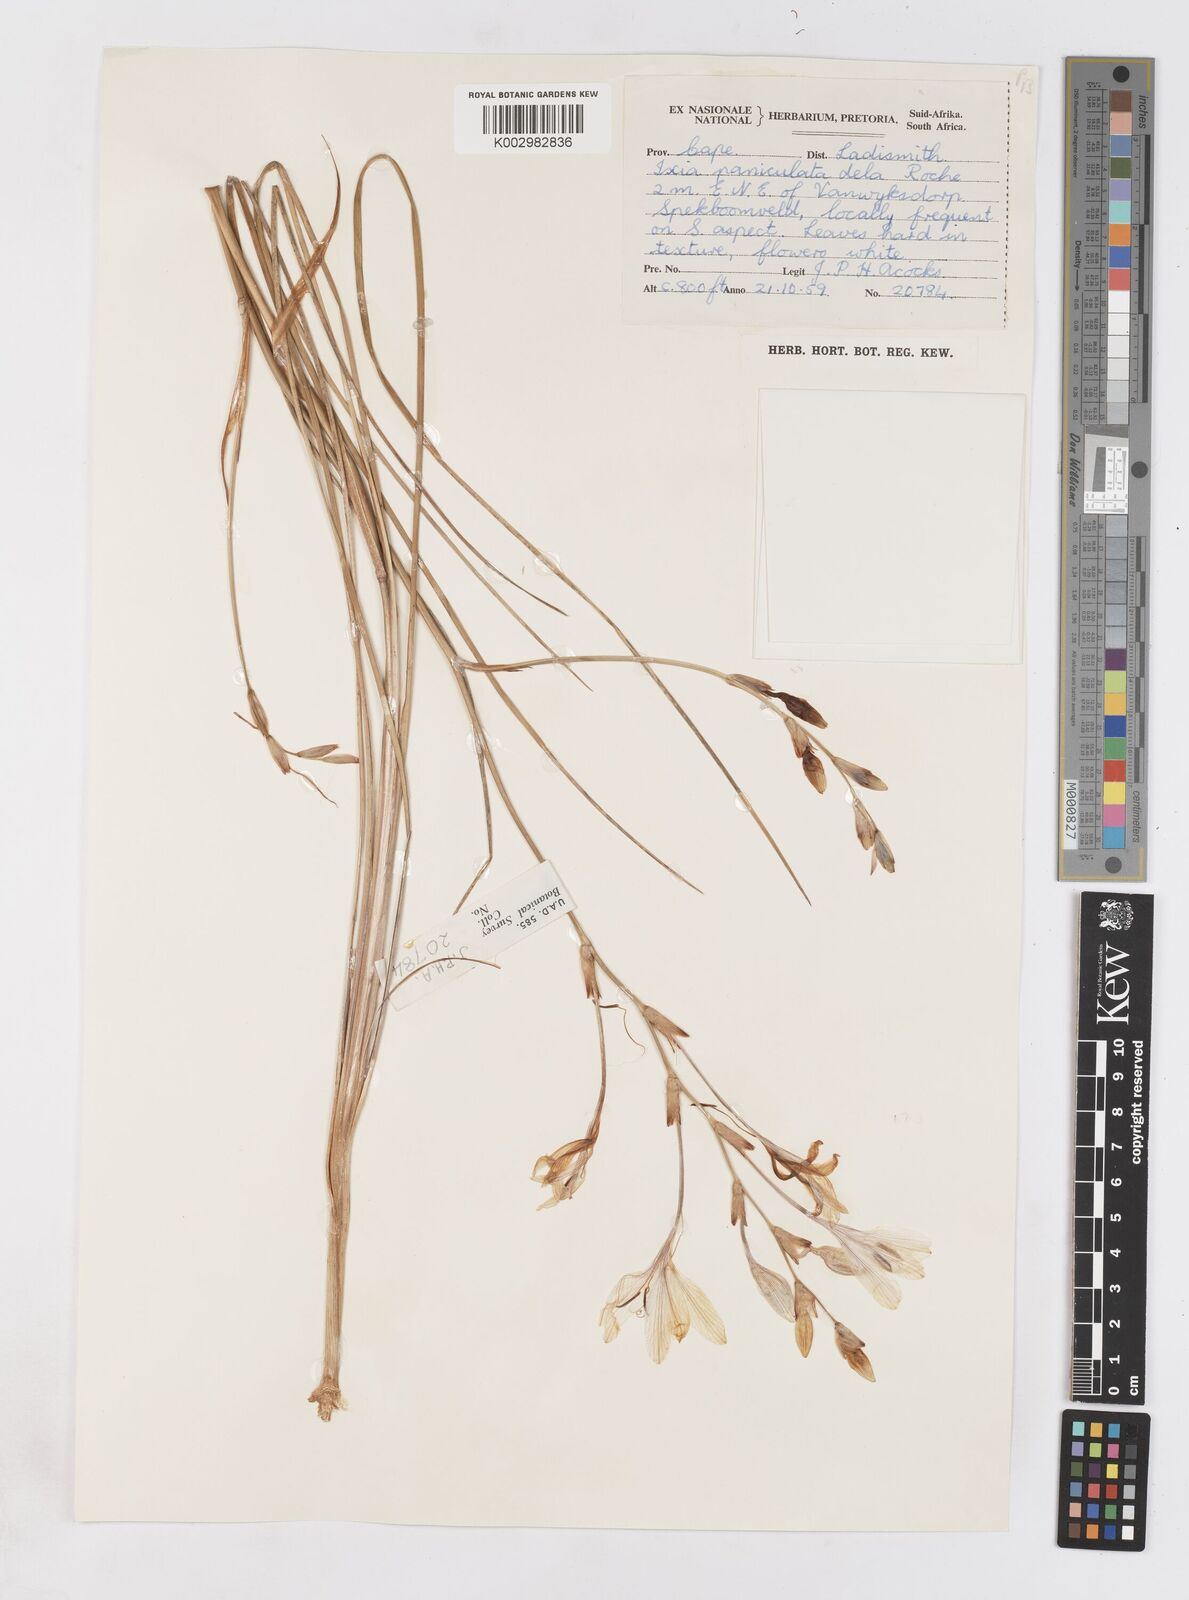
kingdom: Plantae
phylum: Tracheophyta
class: Liliopsida
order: Asparagales
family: Iridaceae
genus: Ixia
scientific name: Ixia paniculata
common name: Tubular corn-lily
